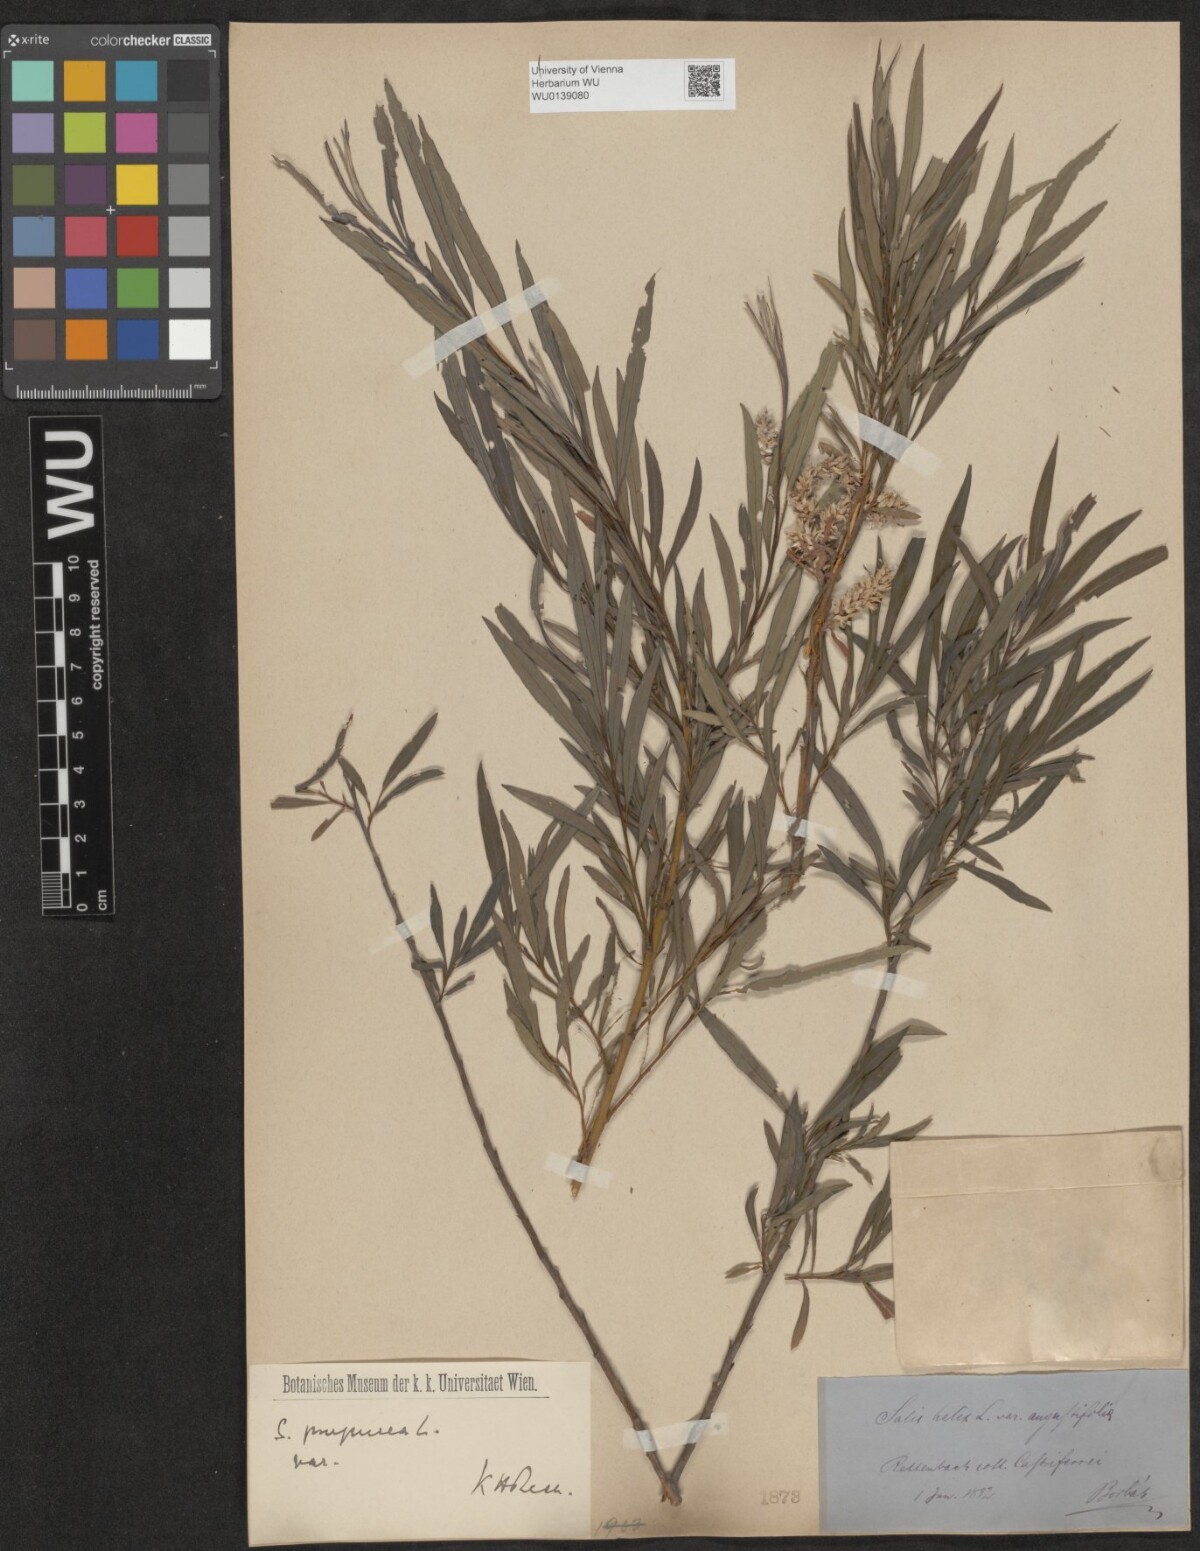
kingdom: Plantae
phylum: Tracheophyta
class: Magnoliopsida
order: Malpighiales
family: Salicaceae
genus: Salix
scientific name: Salix purpurea
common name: Purple willow
